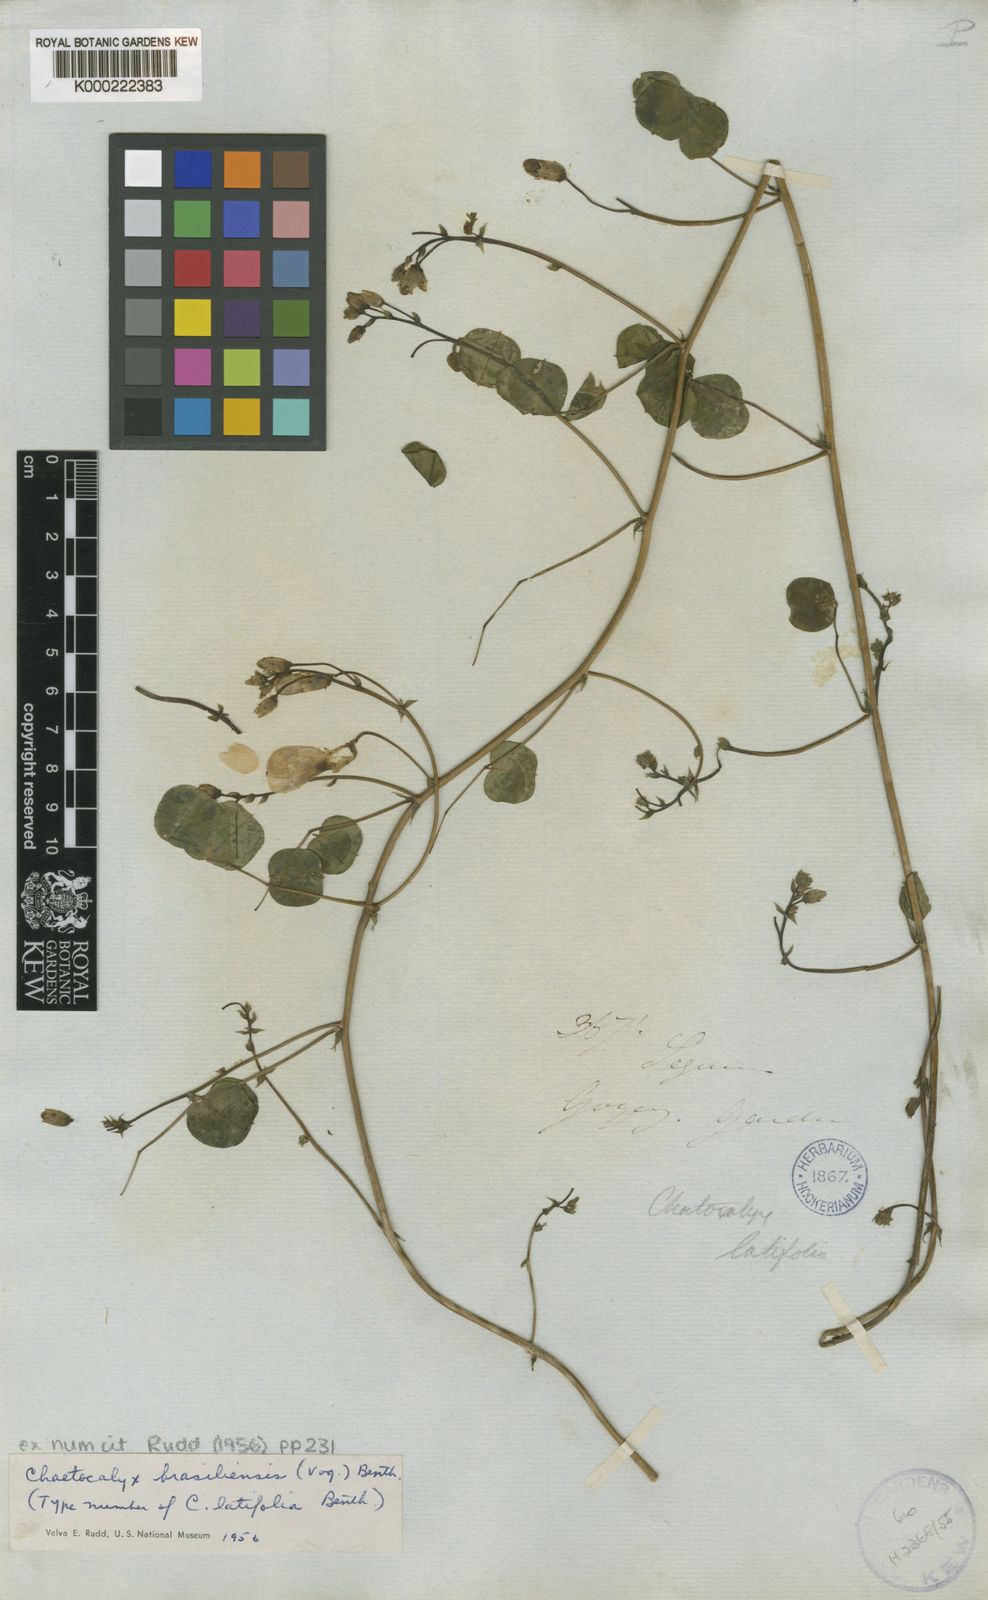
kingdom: Plantae
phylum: Tracheophyta
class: Magnoliopsida
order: Fabales
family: Fabaceae
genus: Nissolia
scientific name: Nissolia brasiliensis
